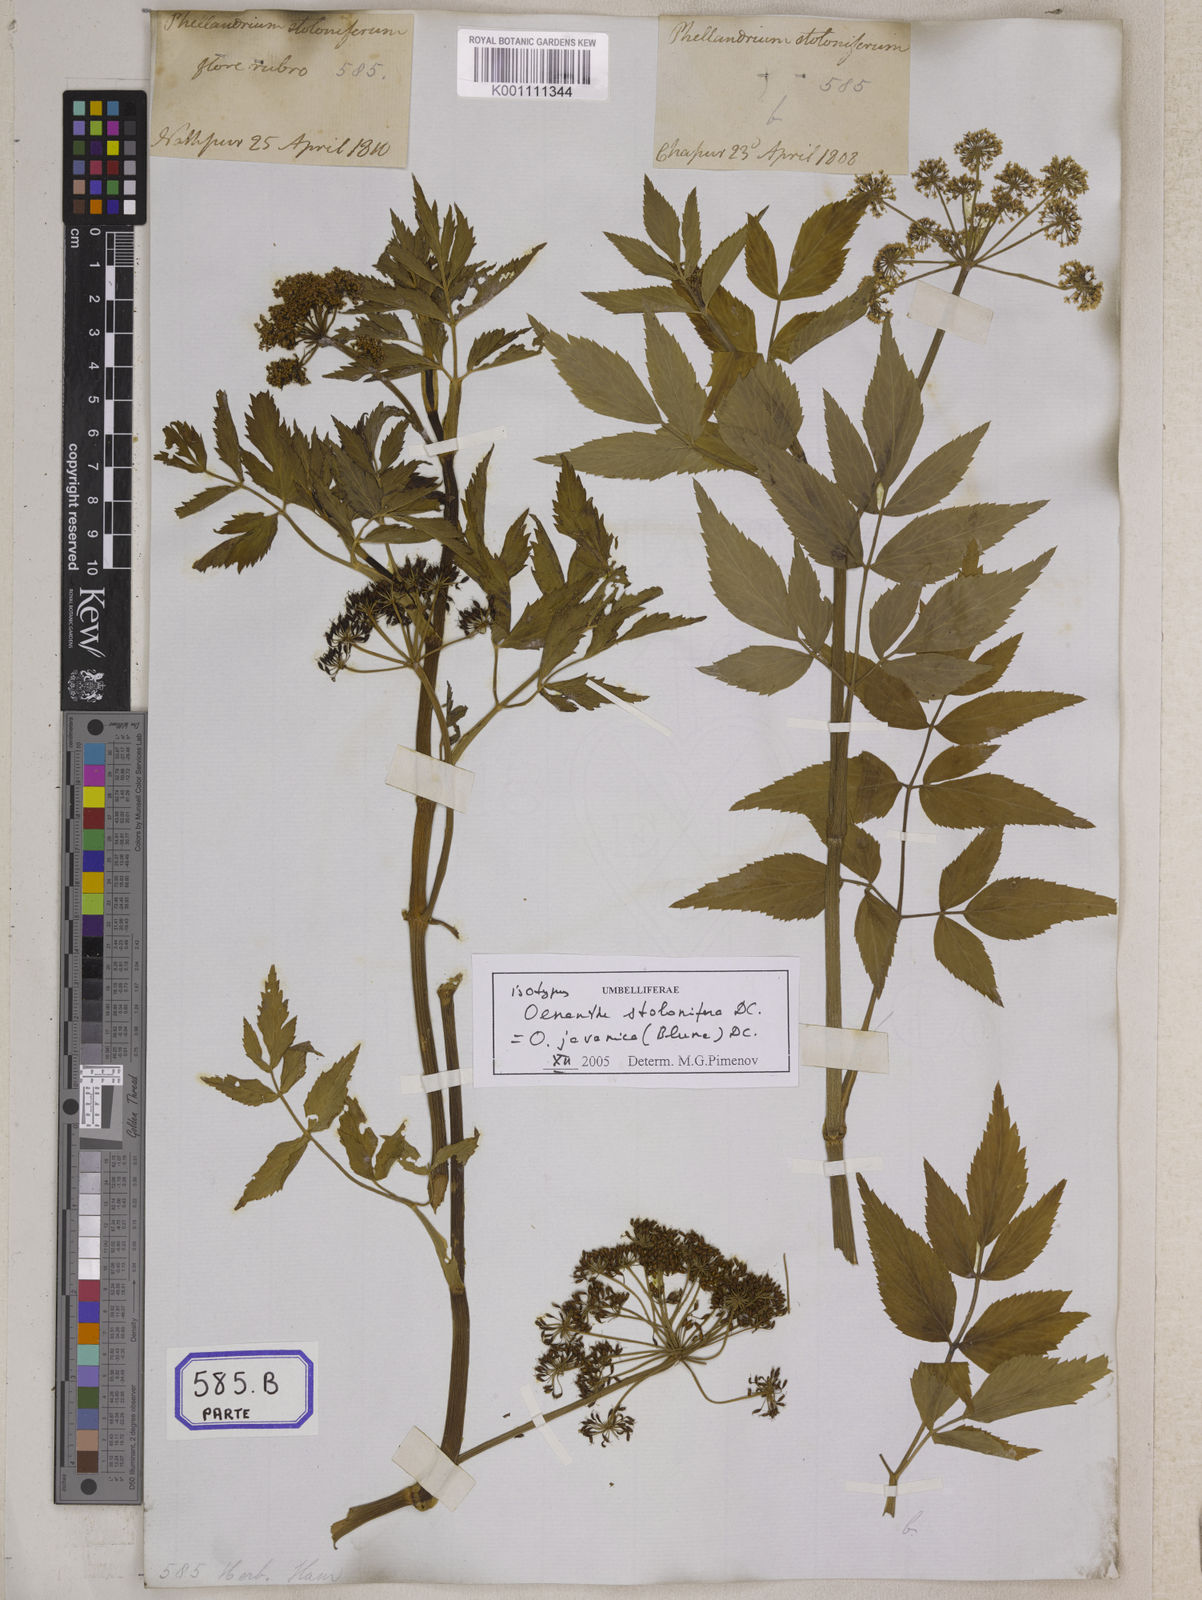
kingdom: Plantae
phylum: Tracheophyta
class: Magnoliopsida
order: Apiales
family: Apiaceae
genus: Oenanthe
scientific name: Oenanthe
